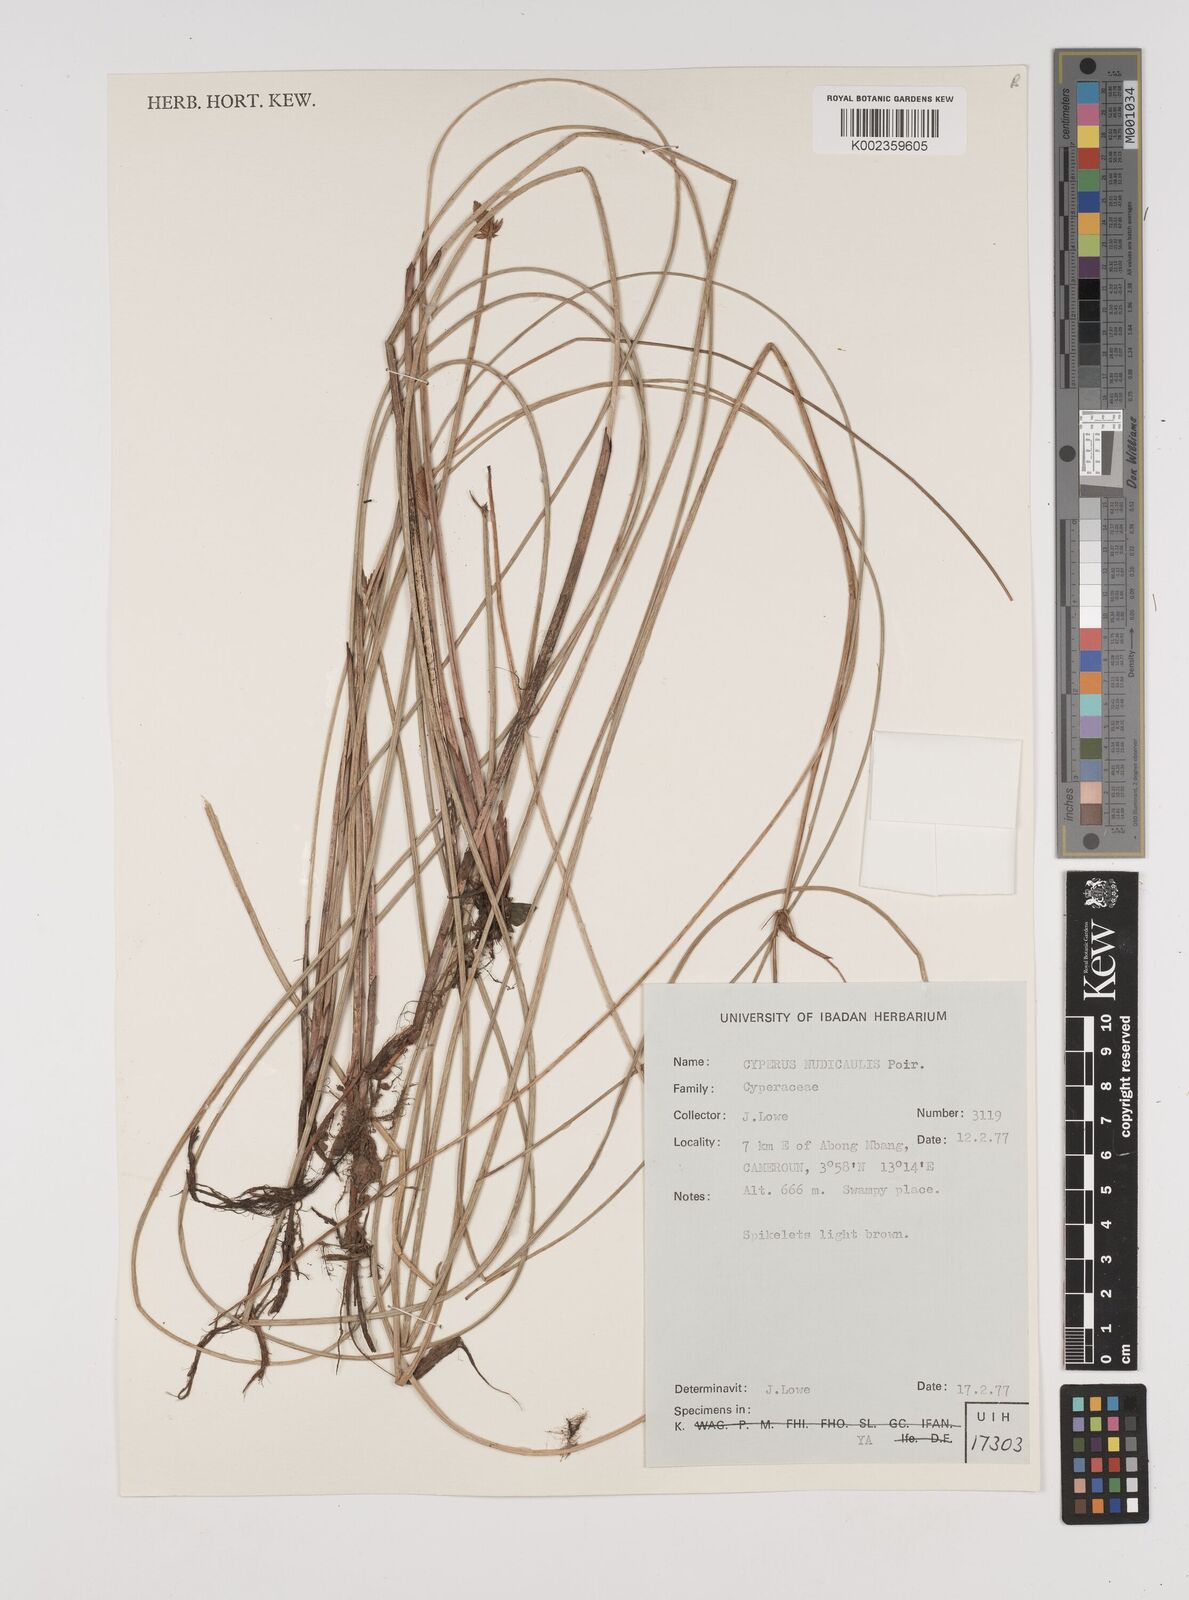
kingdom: Plantae
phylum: Tracheophyta
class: Liliopsida
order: Poales
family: Cyperaceae
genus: Cyperus
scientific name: Cyperus pectinatus
